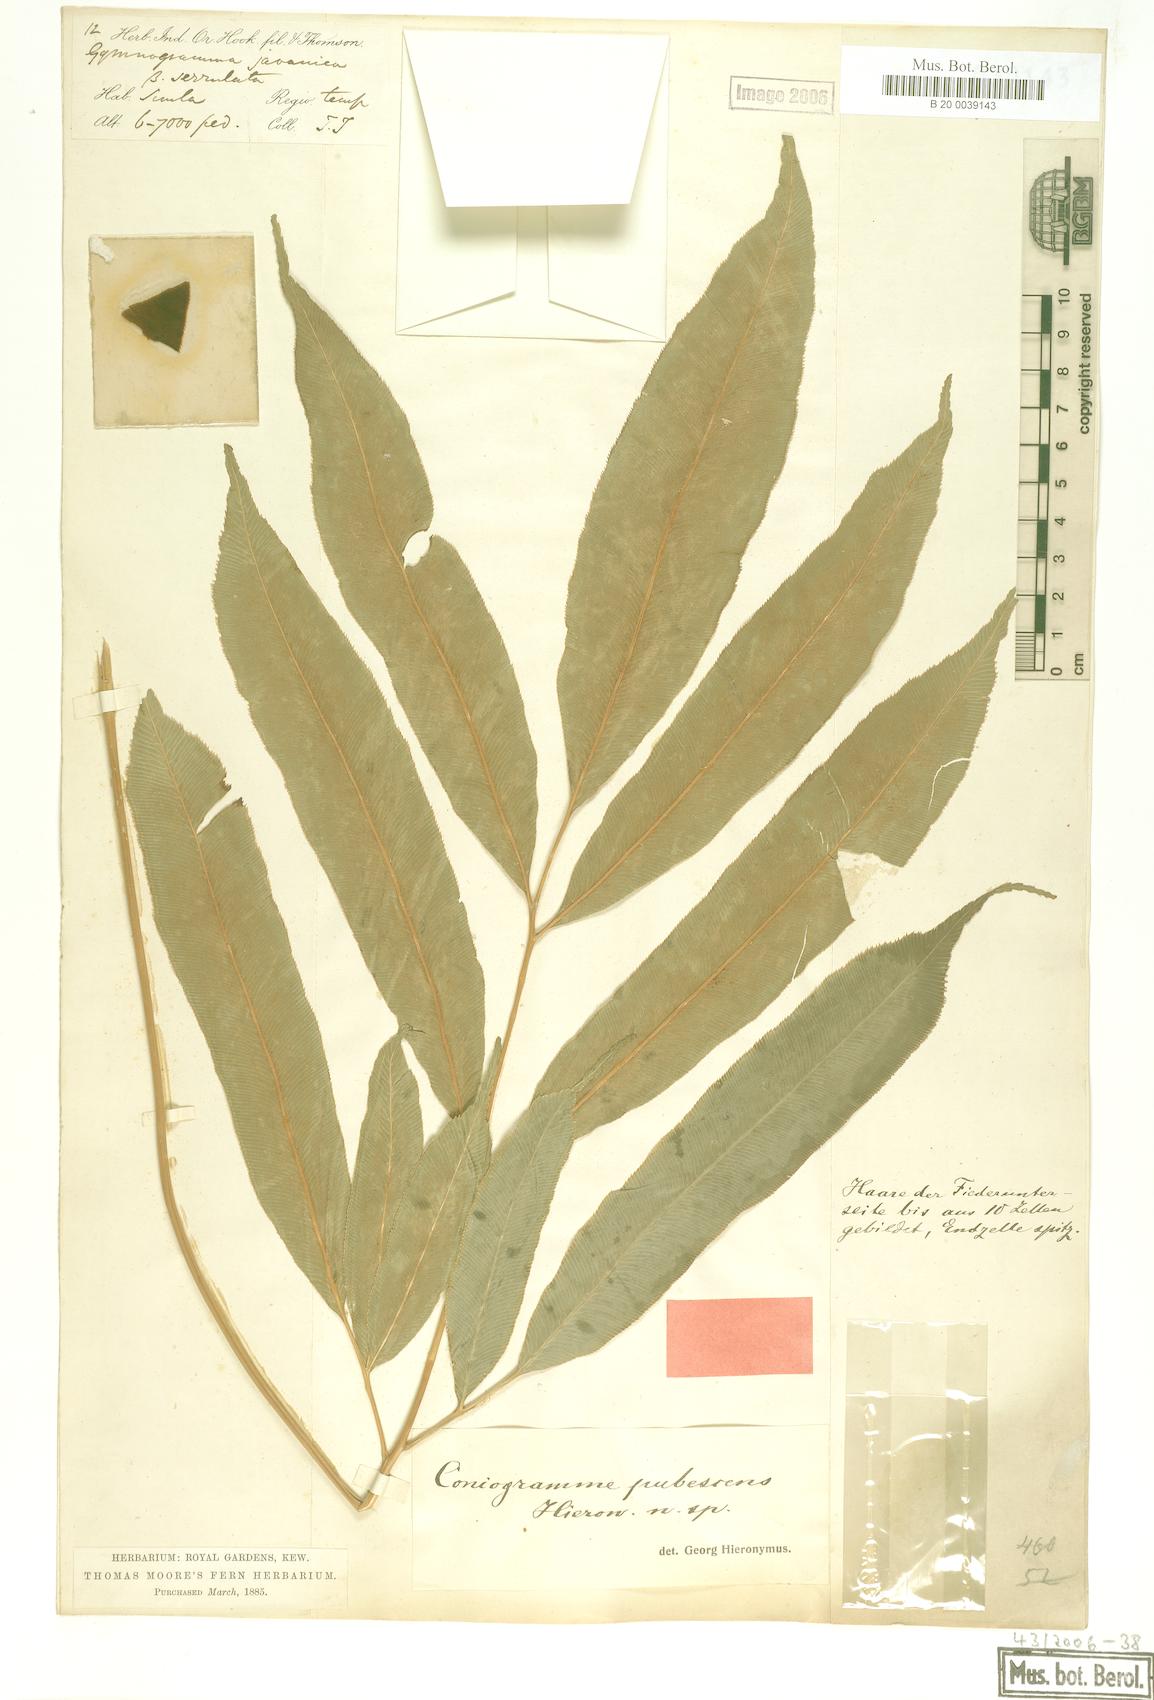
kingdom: Plantae
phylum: Tracheophyta
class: Polypodiopsida
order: Polypodiales
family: Pteridaceae
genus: Coniogramme
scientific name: Coniogramme pubescens
